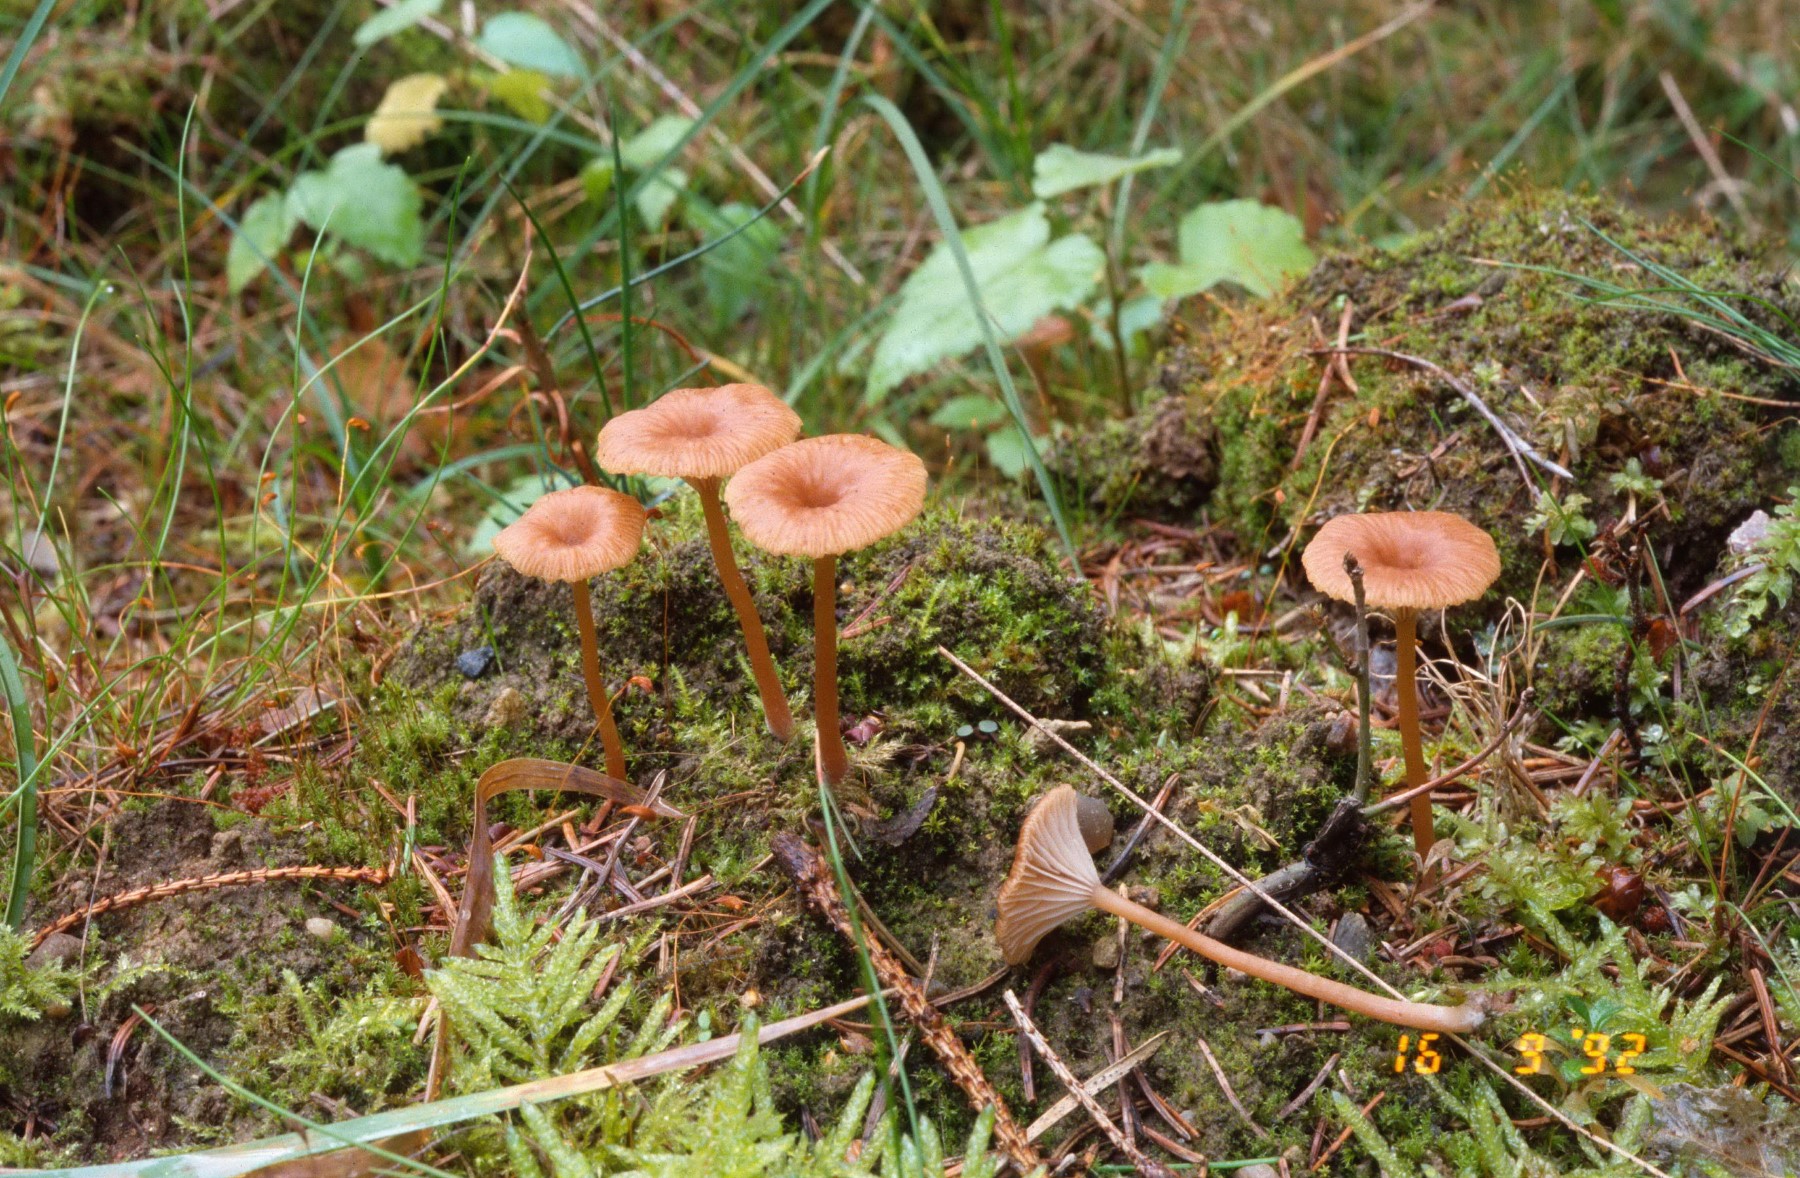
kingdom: Fungi
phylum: Basidiomycota
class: Agaricomycetes
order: Agaricales
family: Tricholomataceae
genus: Omphalina
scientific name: Omphalina pyxidata
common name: rødbrun navlehat
